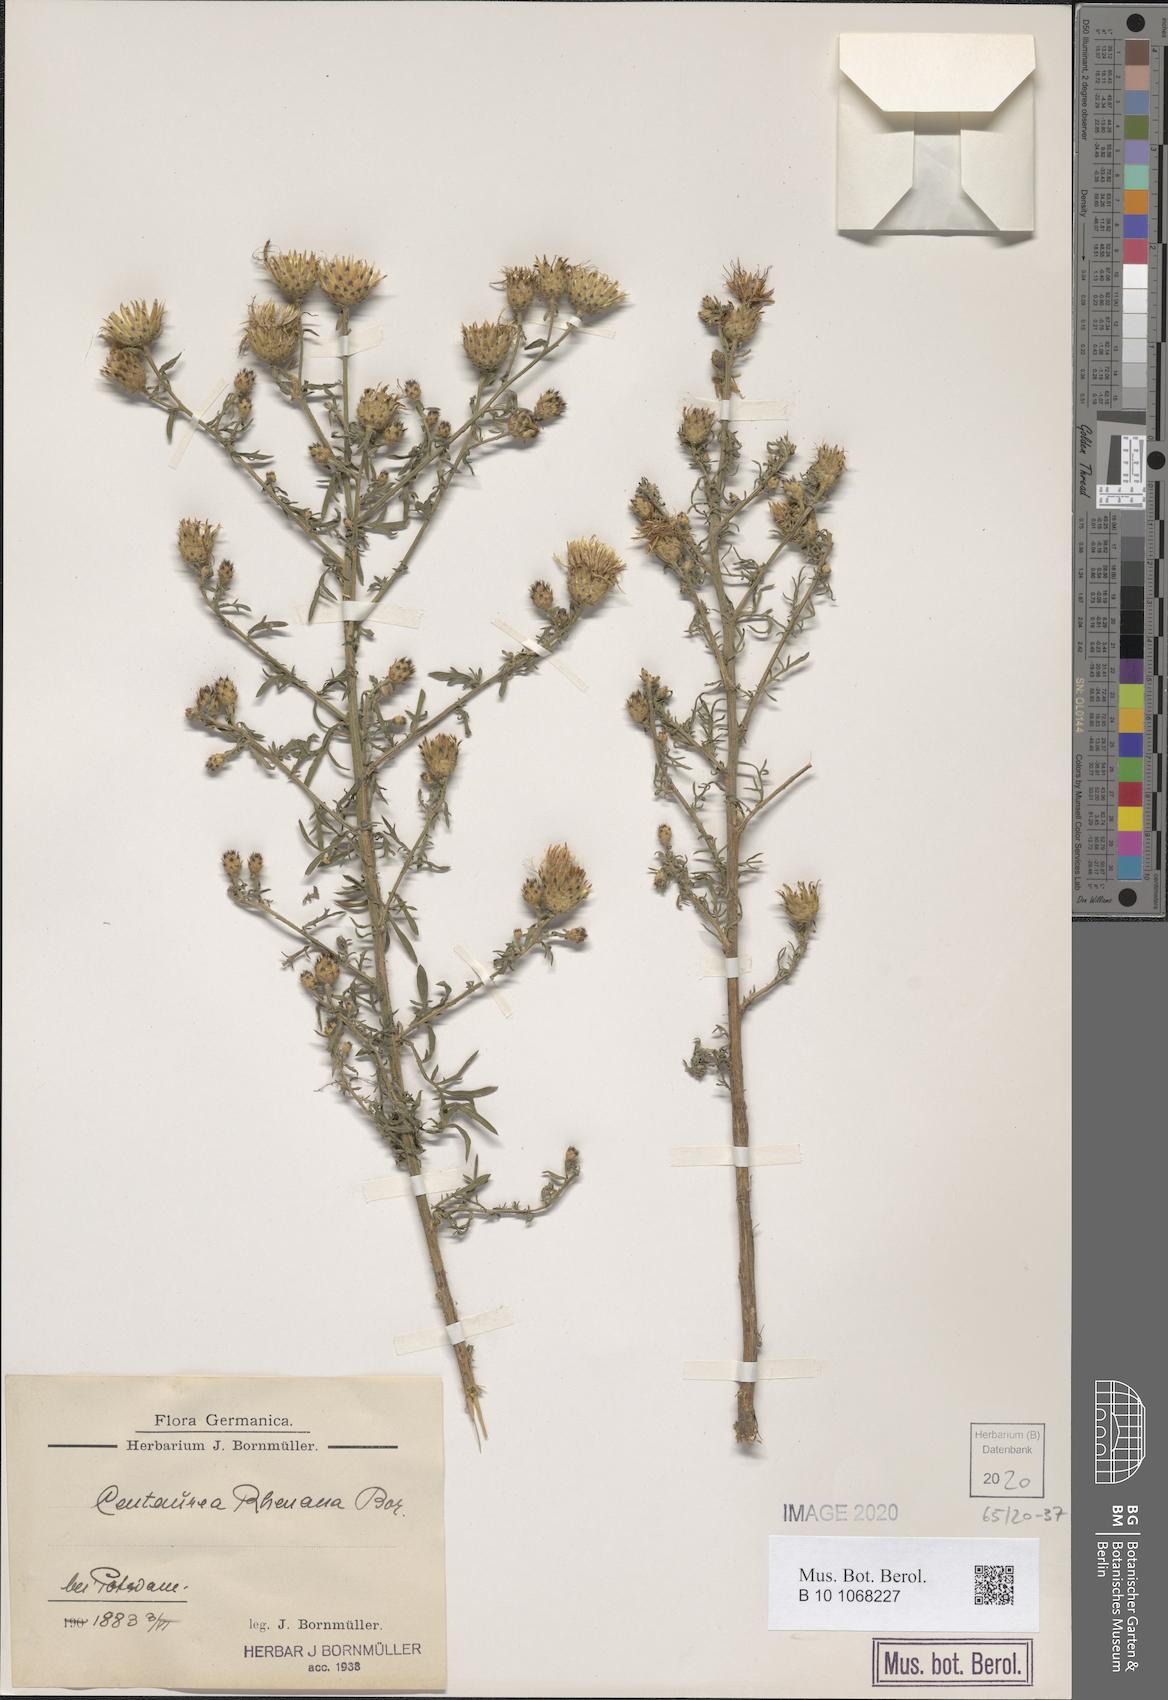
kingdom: Plantae
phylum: Tracheophyta
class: Magnoliopsida
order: Asterales
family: Asteraceae
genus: Centaurea
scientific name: Centaurea stoebe
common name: Spotted knapweed
